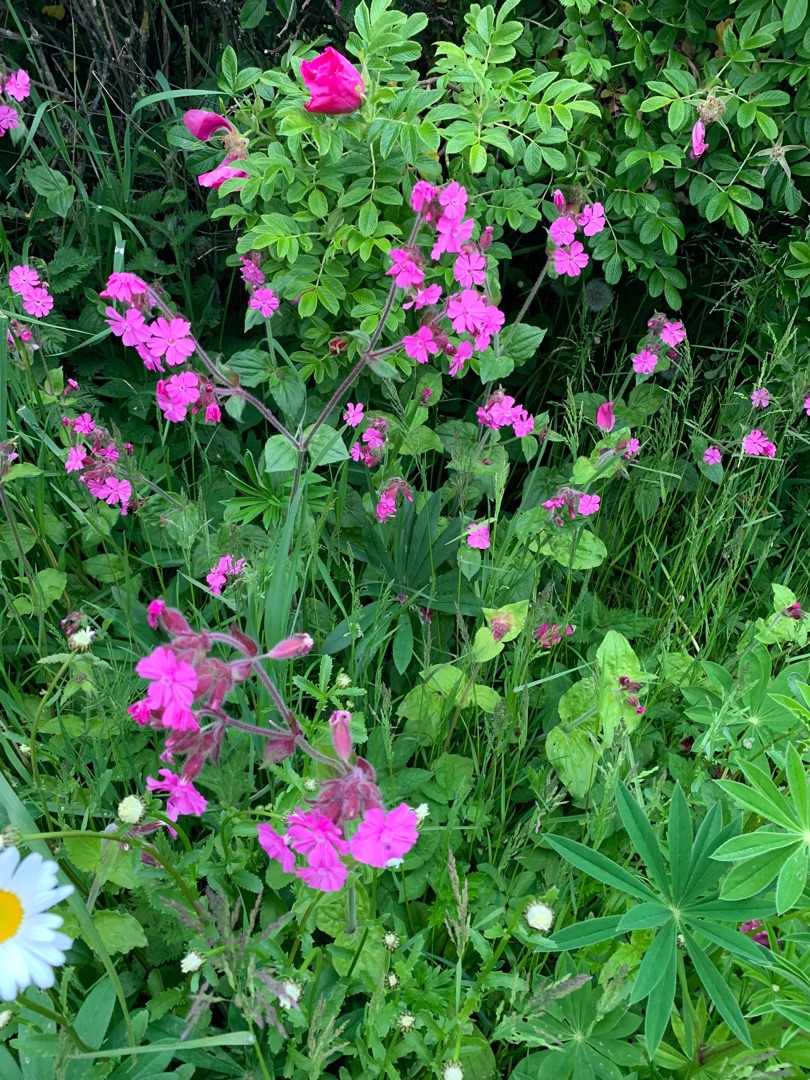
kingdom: Plantae
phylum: Tracheophyta
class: Magnoliopsida
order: Caryophyllales
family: Caryophyllaceae
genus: Silene
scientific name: Silene dioica
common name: Dagpragtstjerne
